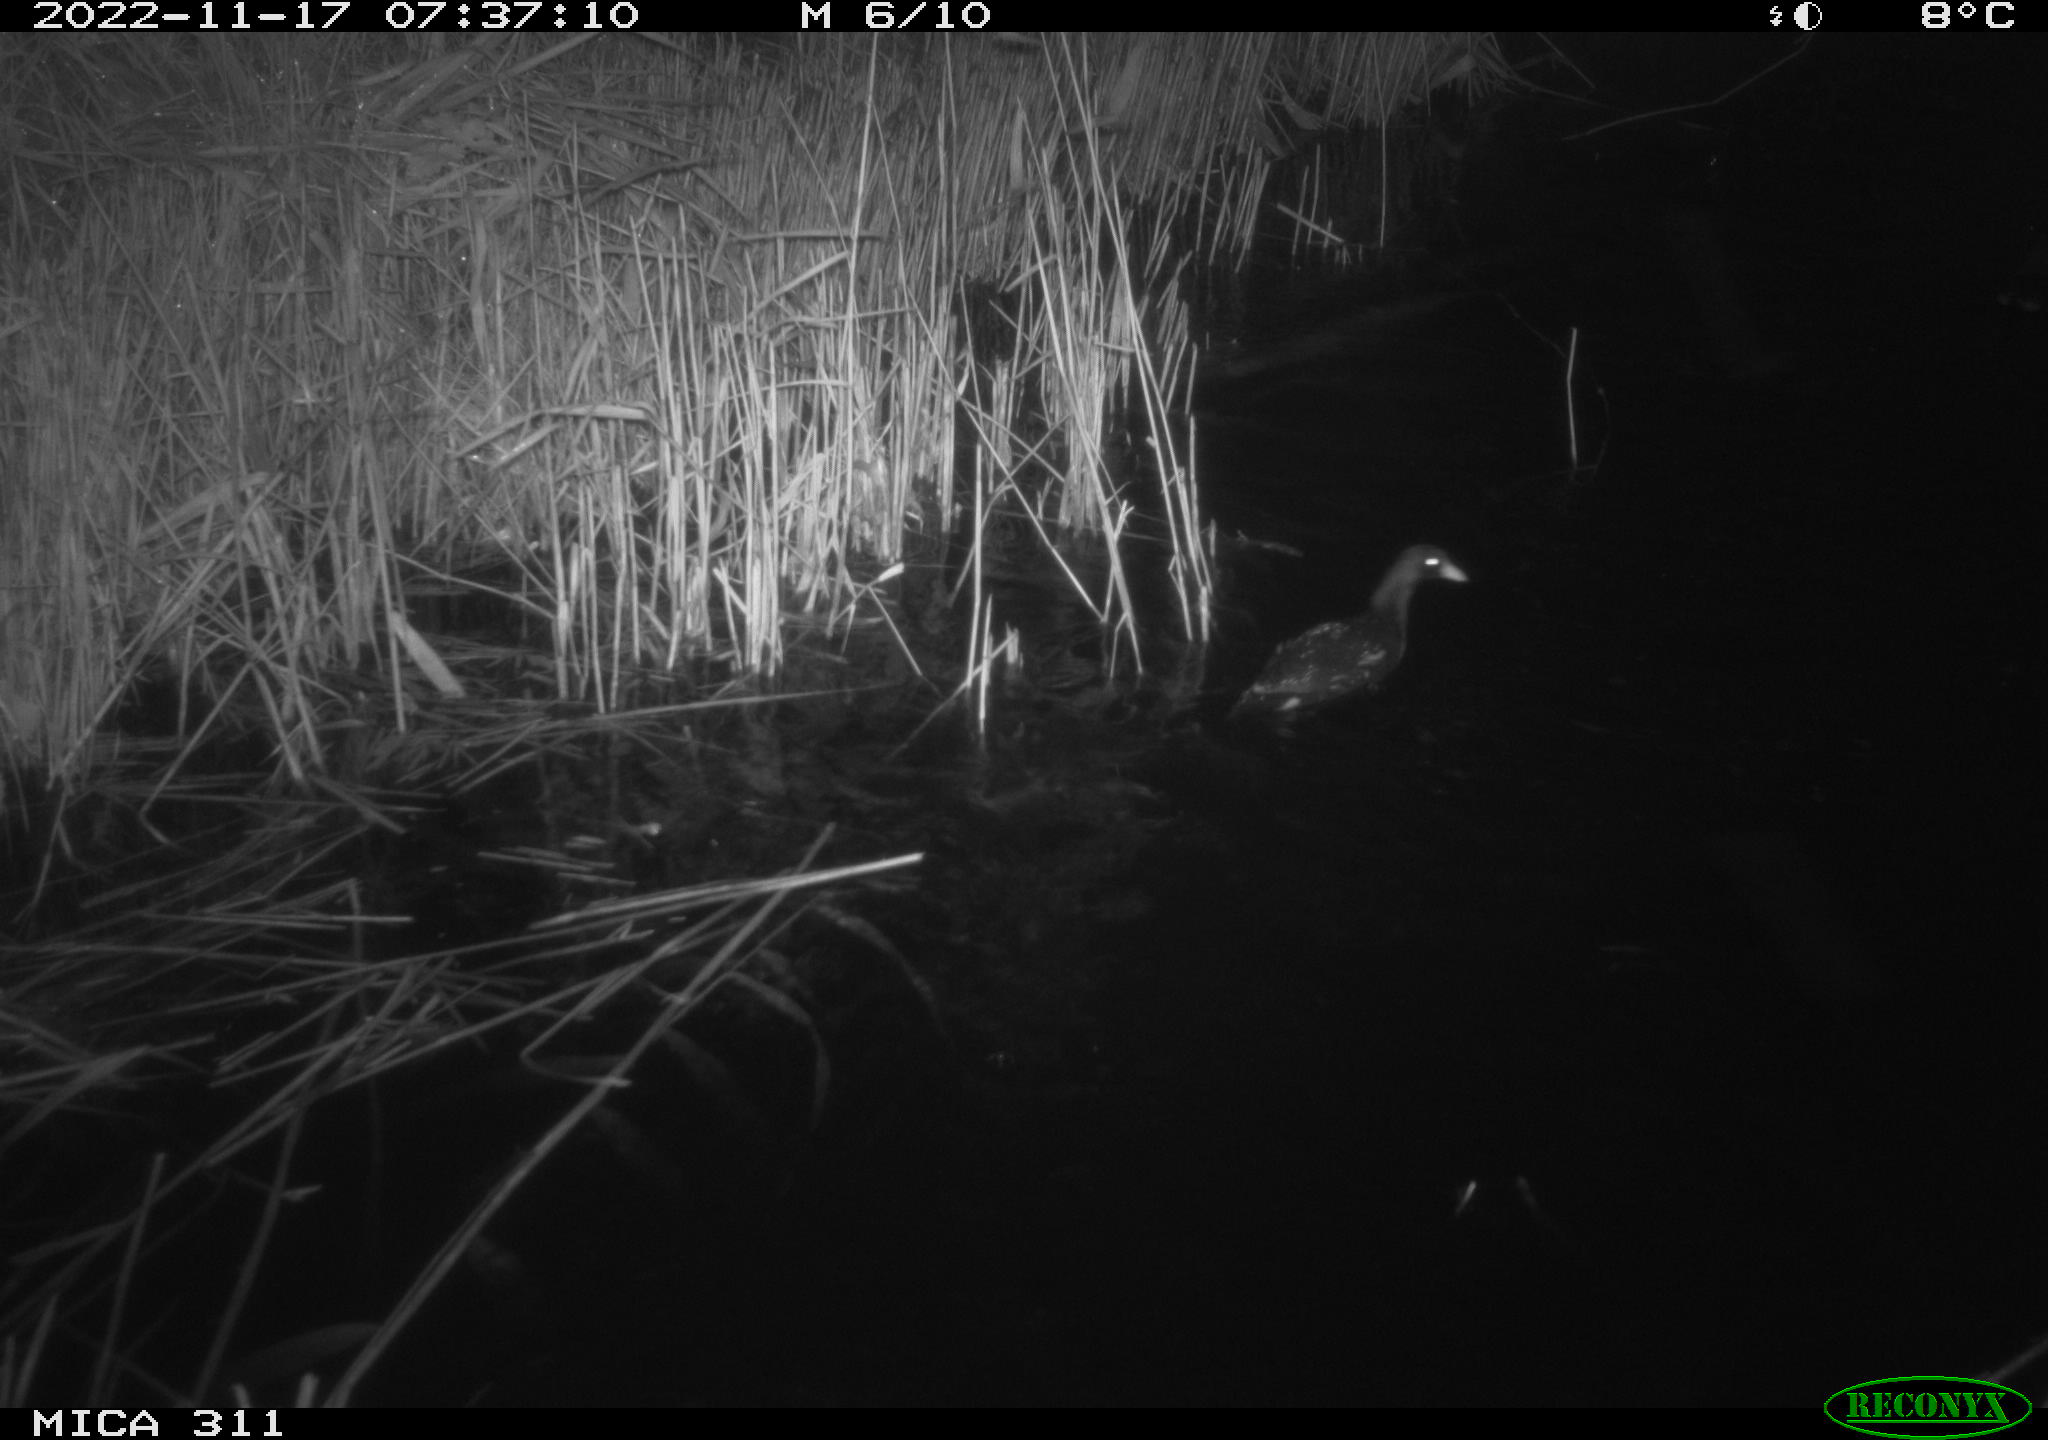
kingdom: Animalia
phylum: Chordata
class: Aves
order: Gruiformes
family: Rallidae
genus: Gallinula
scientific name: Gallinula chloropus
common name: Common moorhen
